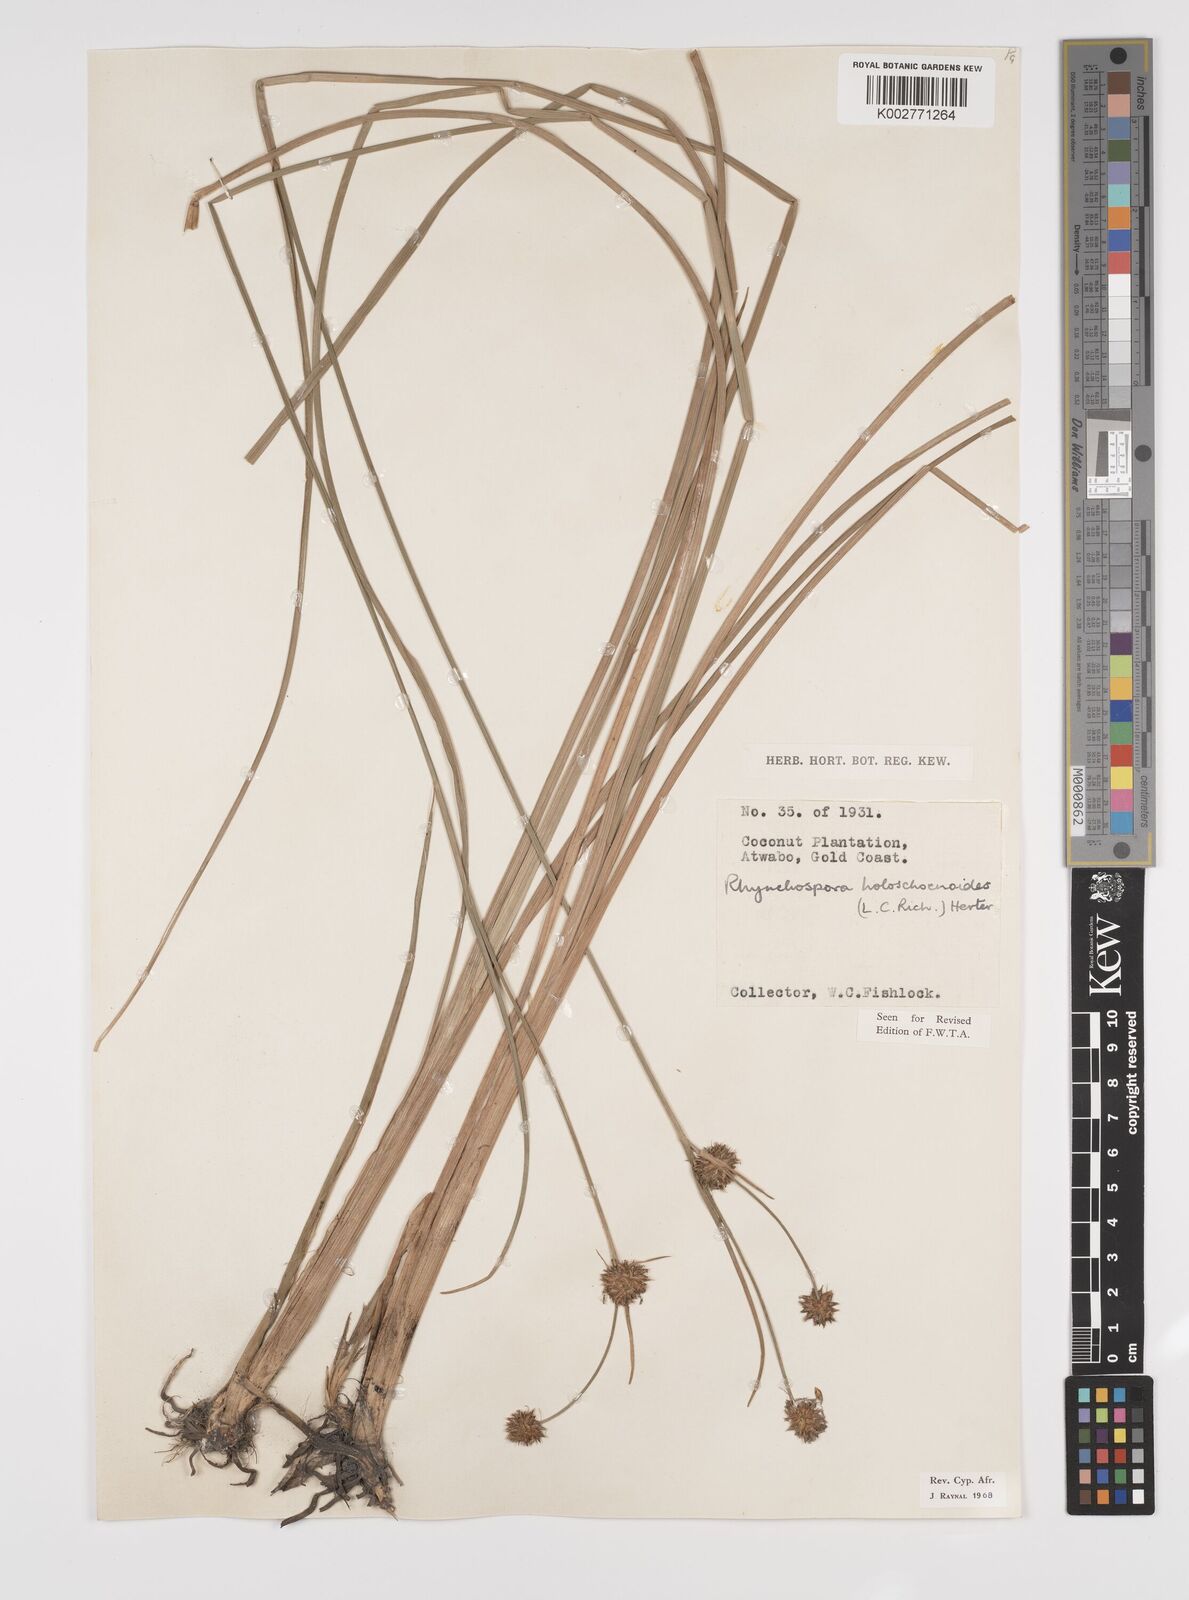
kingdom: Plantae
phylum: Tracheophyta
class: Liliopsida
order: Poales
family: Cyperaceae
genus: Rhynchospora
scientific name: Rhynchospora holoschoenoides
